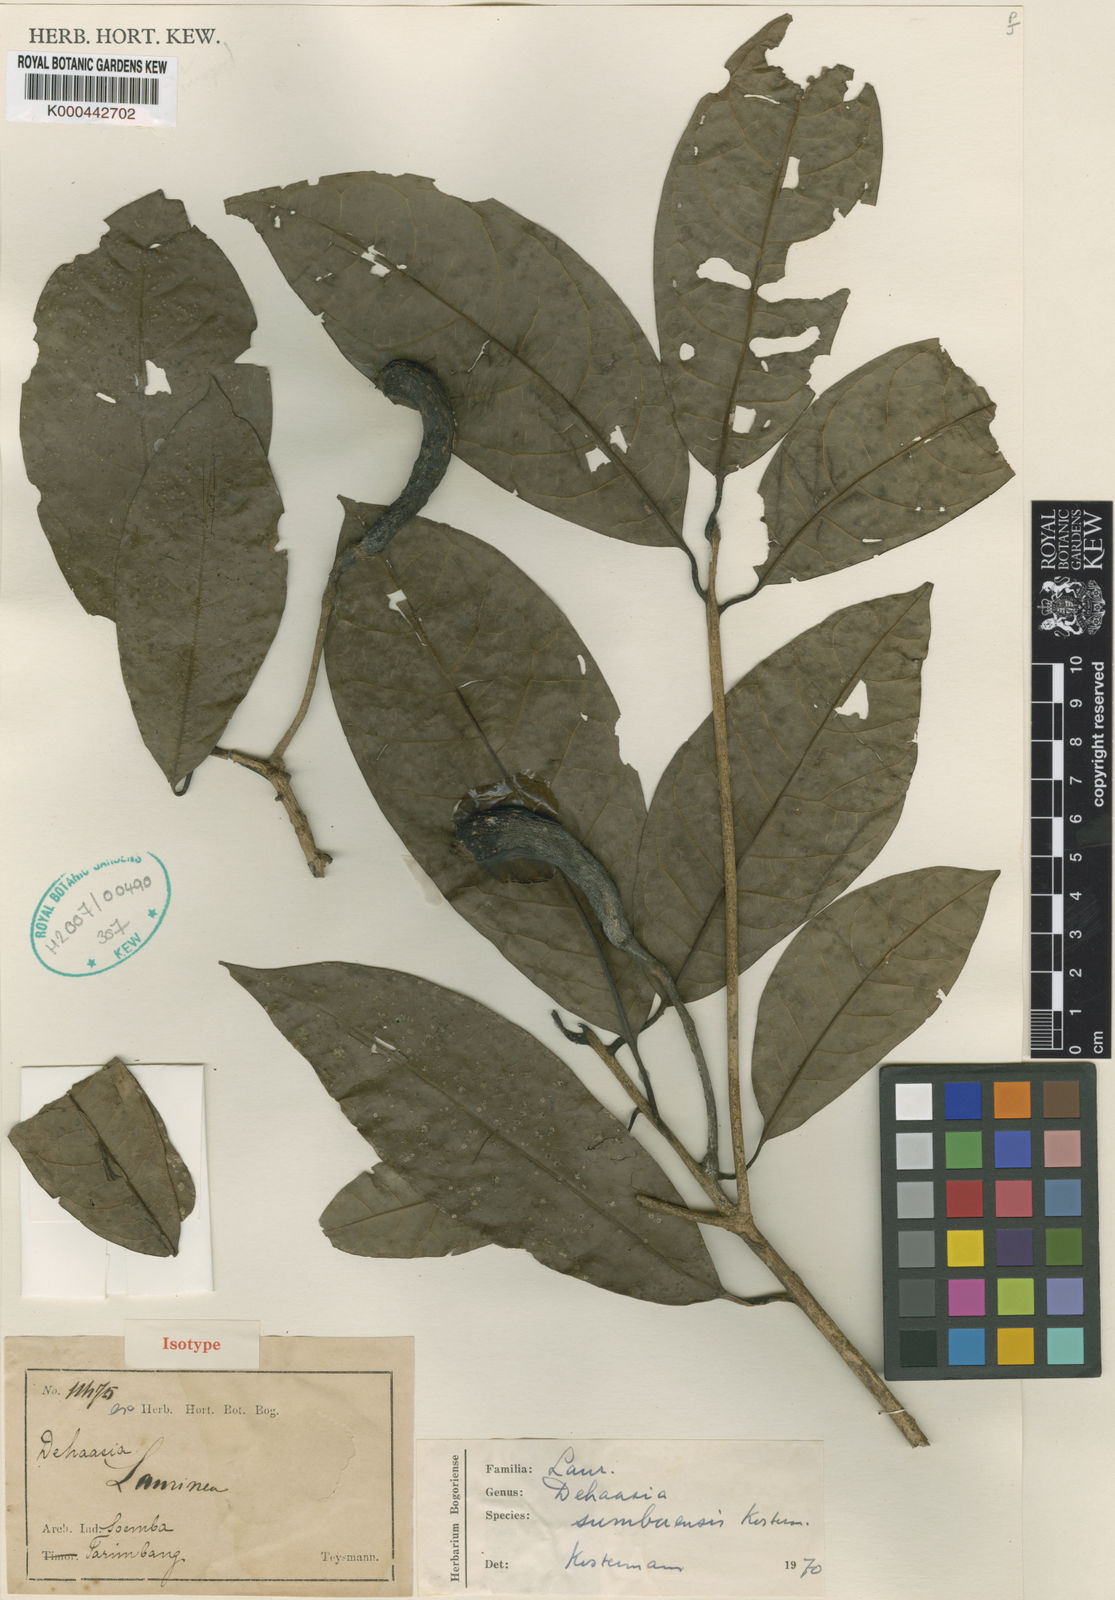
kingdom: Plantae
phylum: Tracheophyta
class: Magnoliopsida
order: Laurales
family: Lauraceae
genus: Dehaasia
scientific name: Dehaasia sumbaensis
